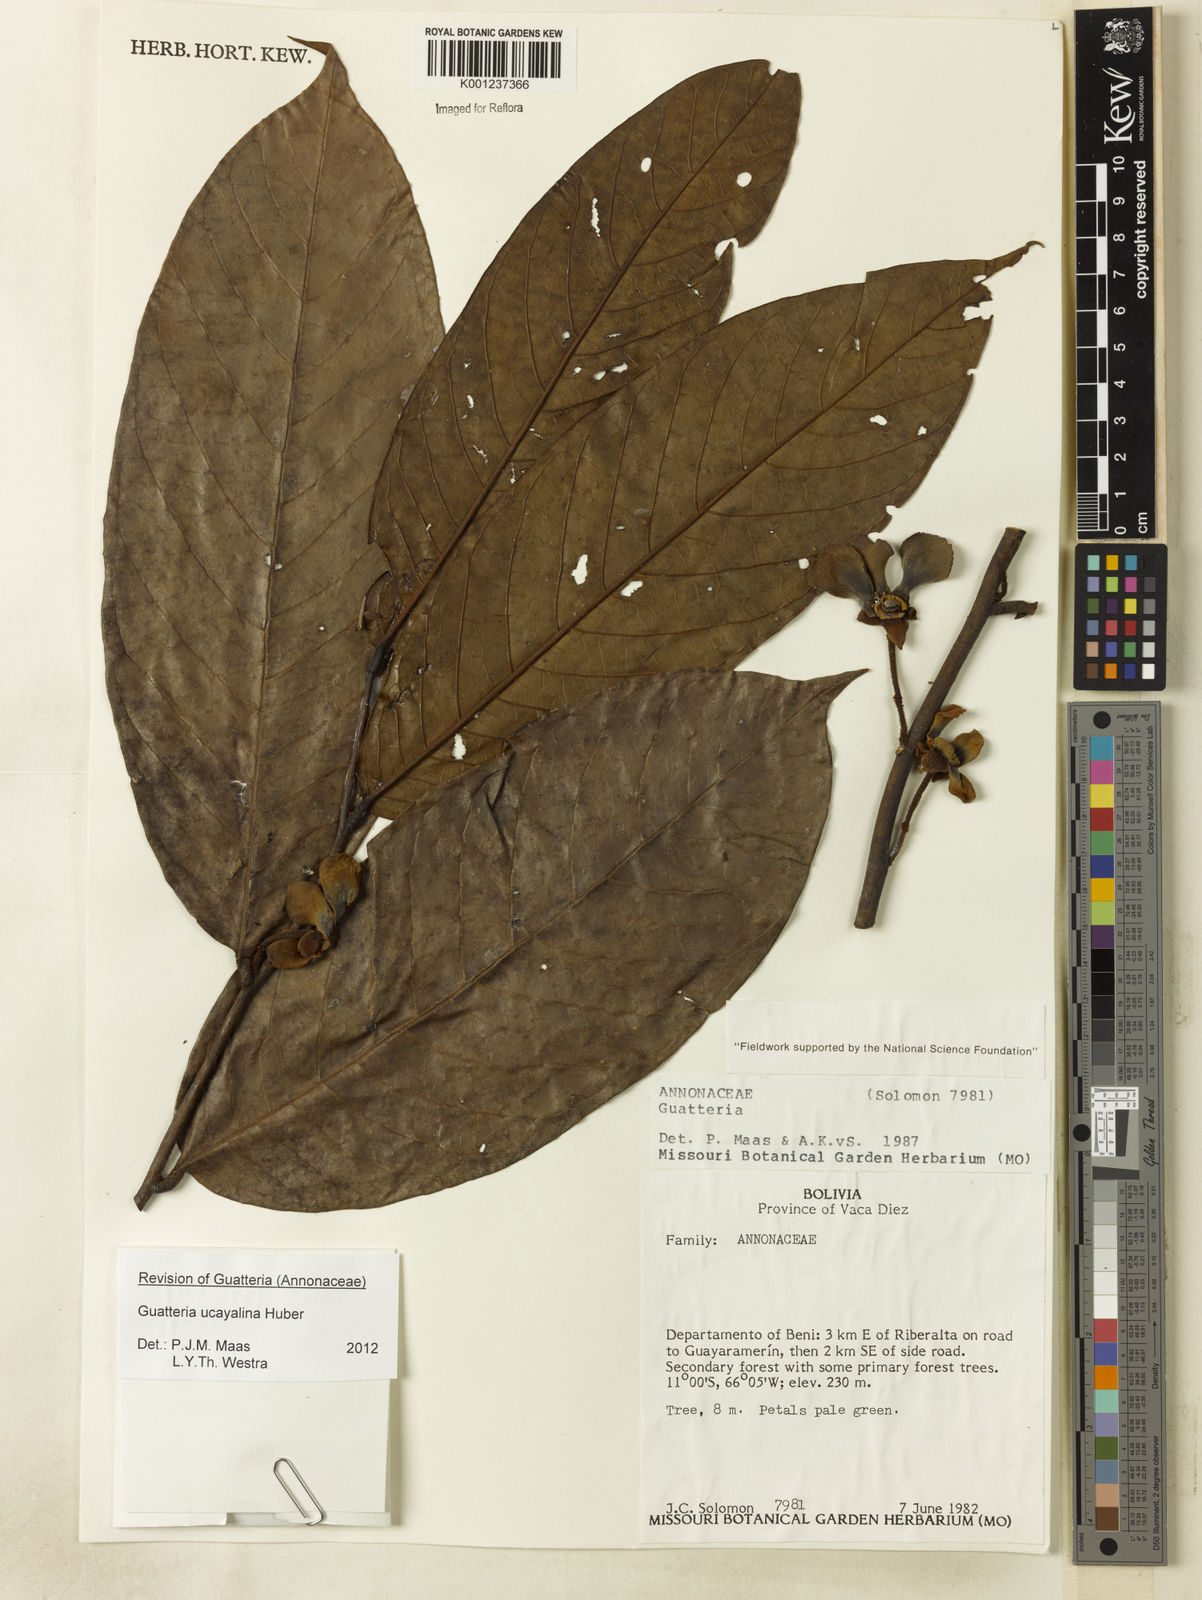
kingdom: Plantae
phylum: Tracheophyta
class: Magnoliopsida
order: Magnoliales
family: Annonaceae
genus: Guatteria
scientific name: Guatteria blepharophylla
